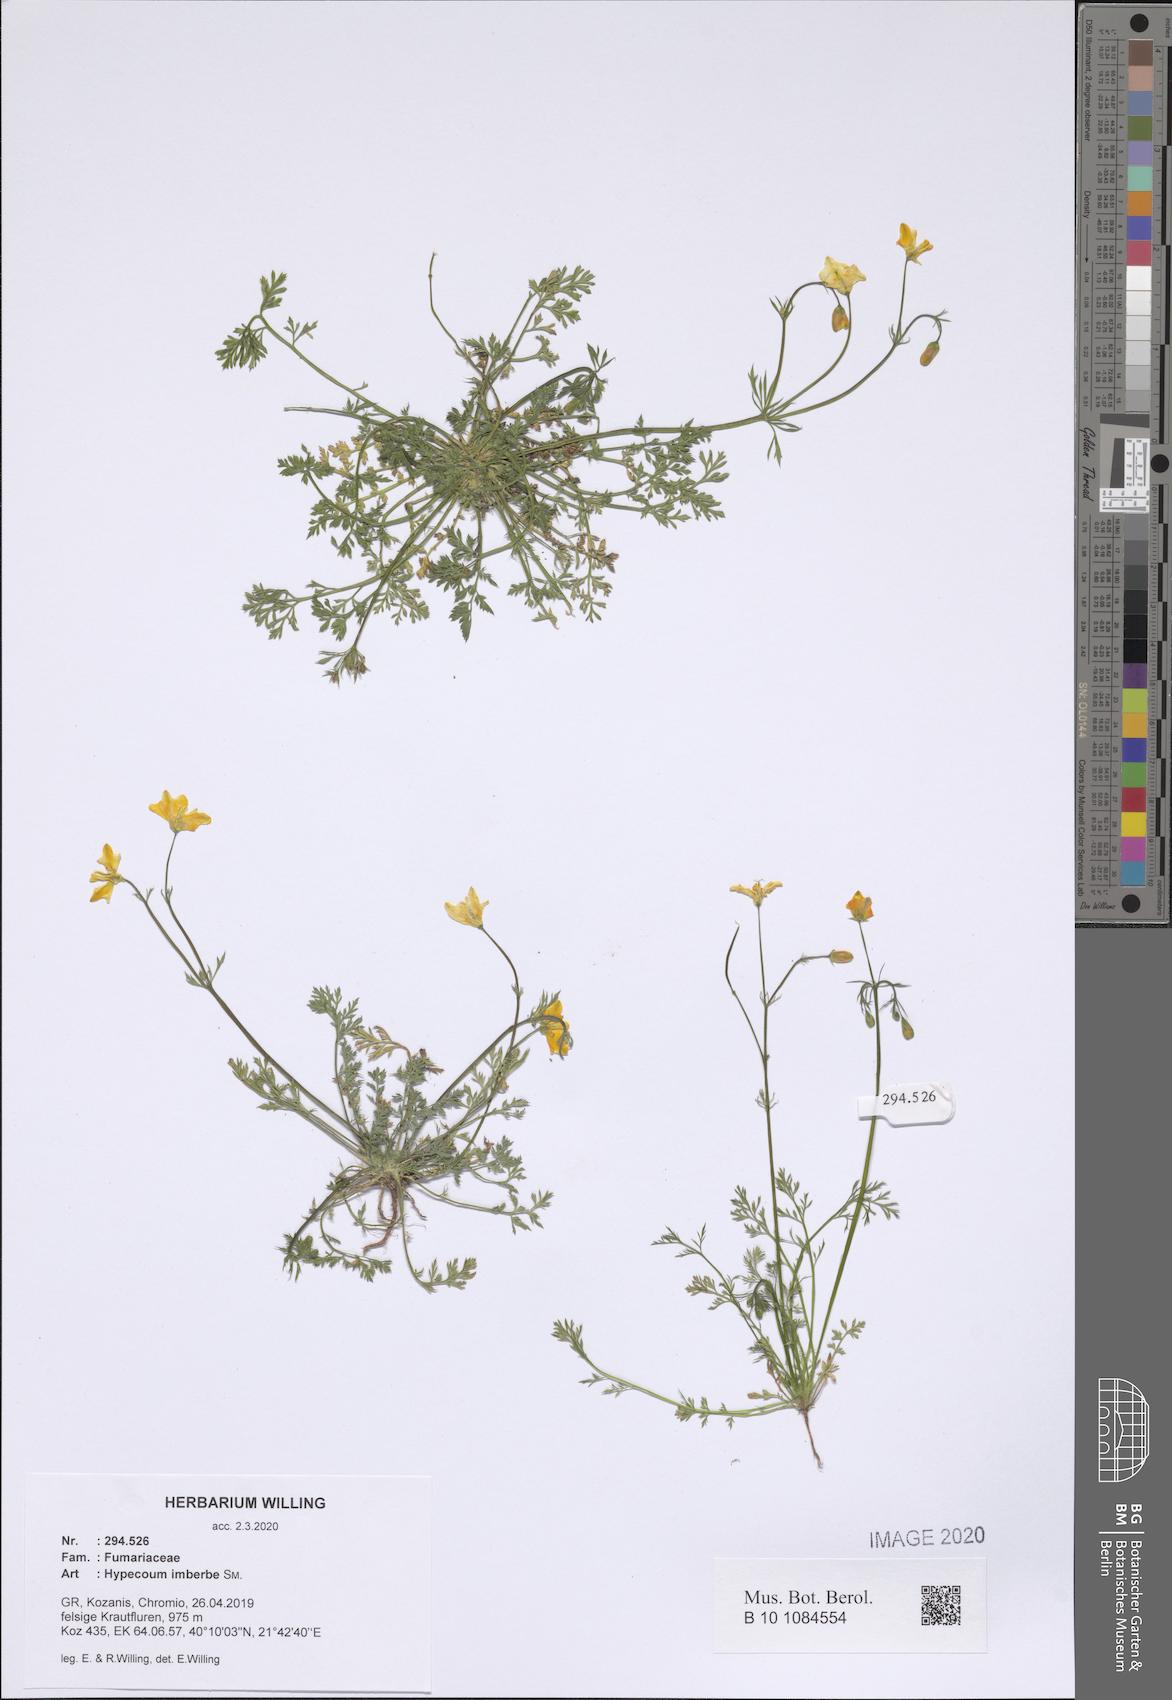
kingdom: Plantae
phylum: Tracheophyta
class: Magnoliopsida
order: Ranunculales
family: Papaveraceae
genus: Hypecoum
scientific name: Hypecoum imberbe
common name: Sicklefruit hypecoum
